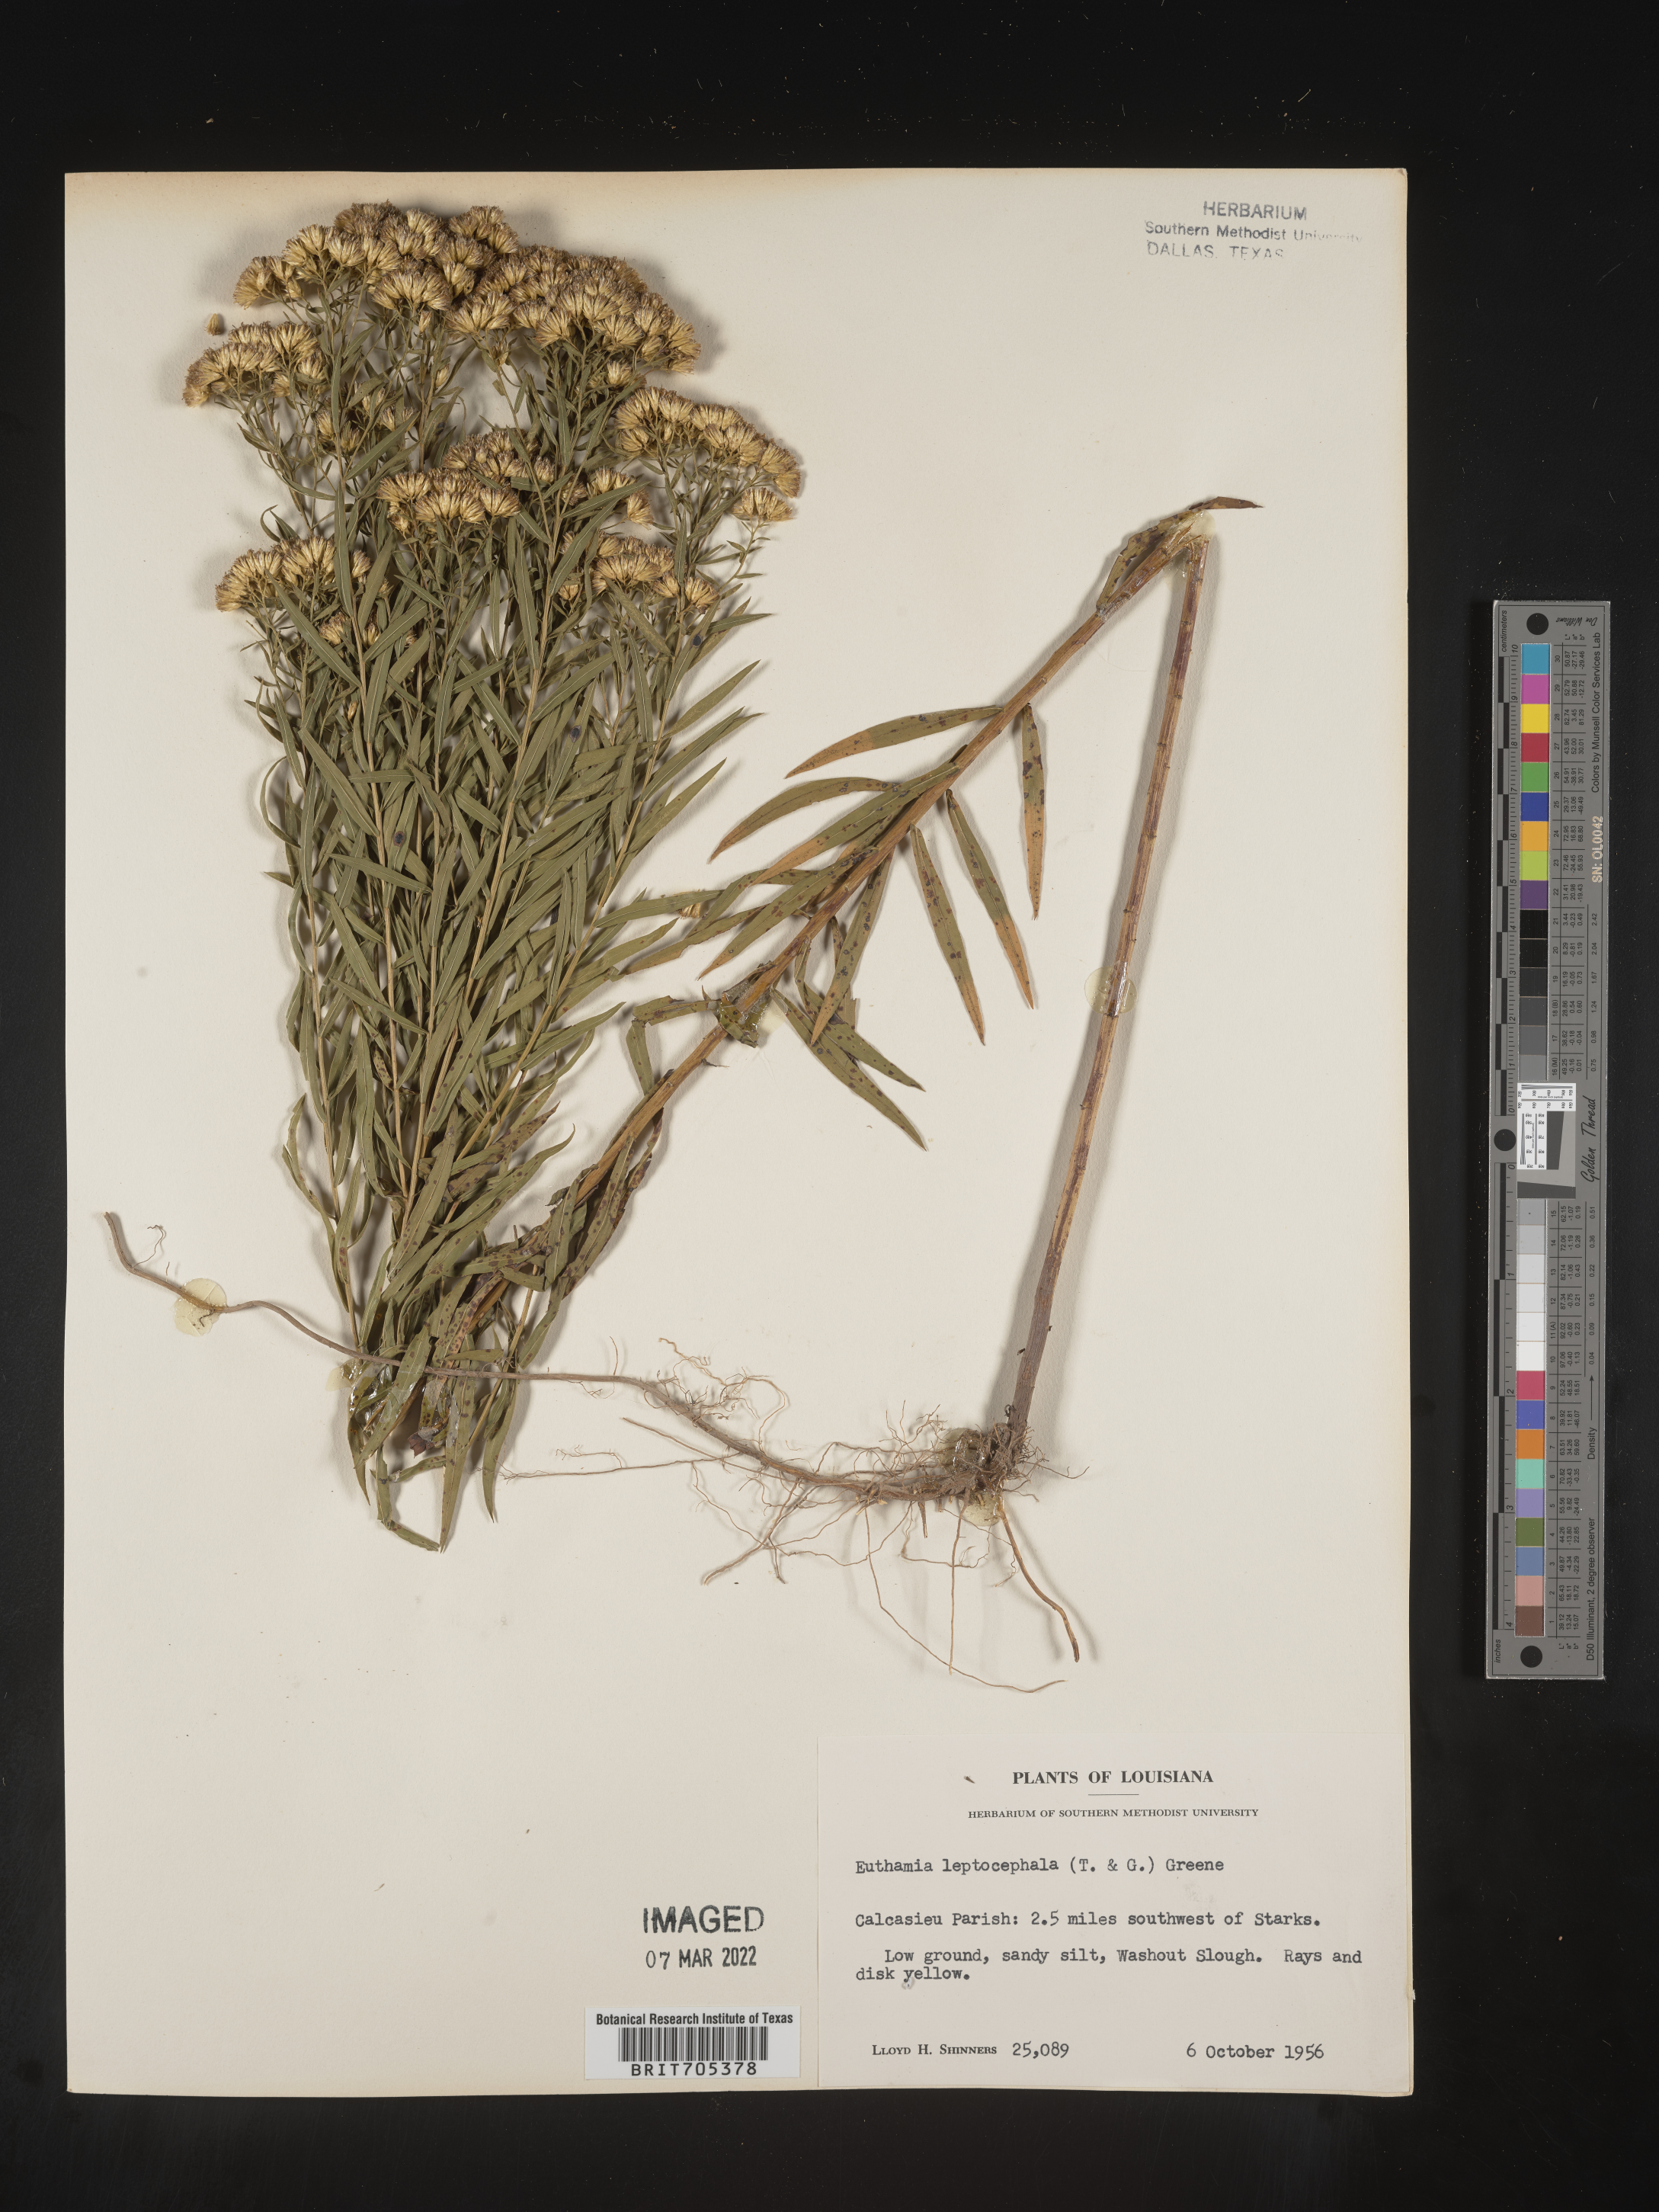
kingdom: Plantae
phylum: Tracheophyta
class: Magnoliopsida
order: Asterales
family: Asteraceae
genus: Euthamia
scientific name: Euthamia leptocephala
